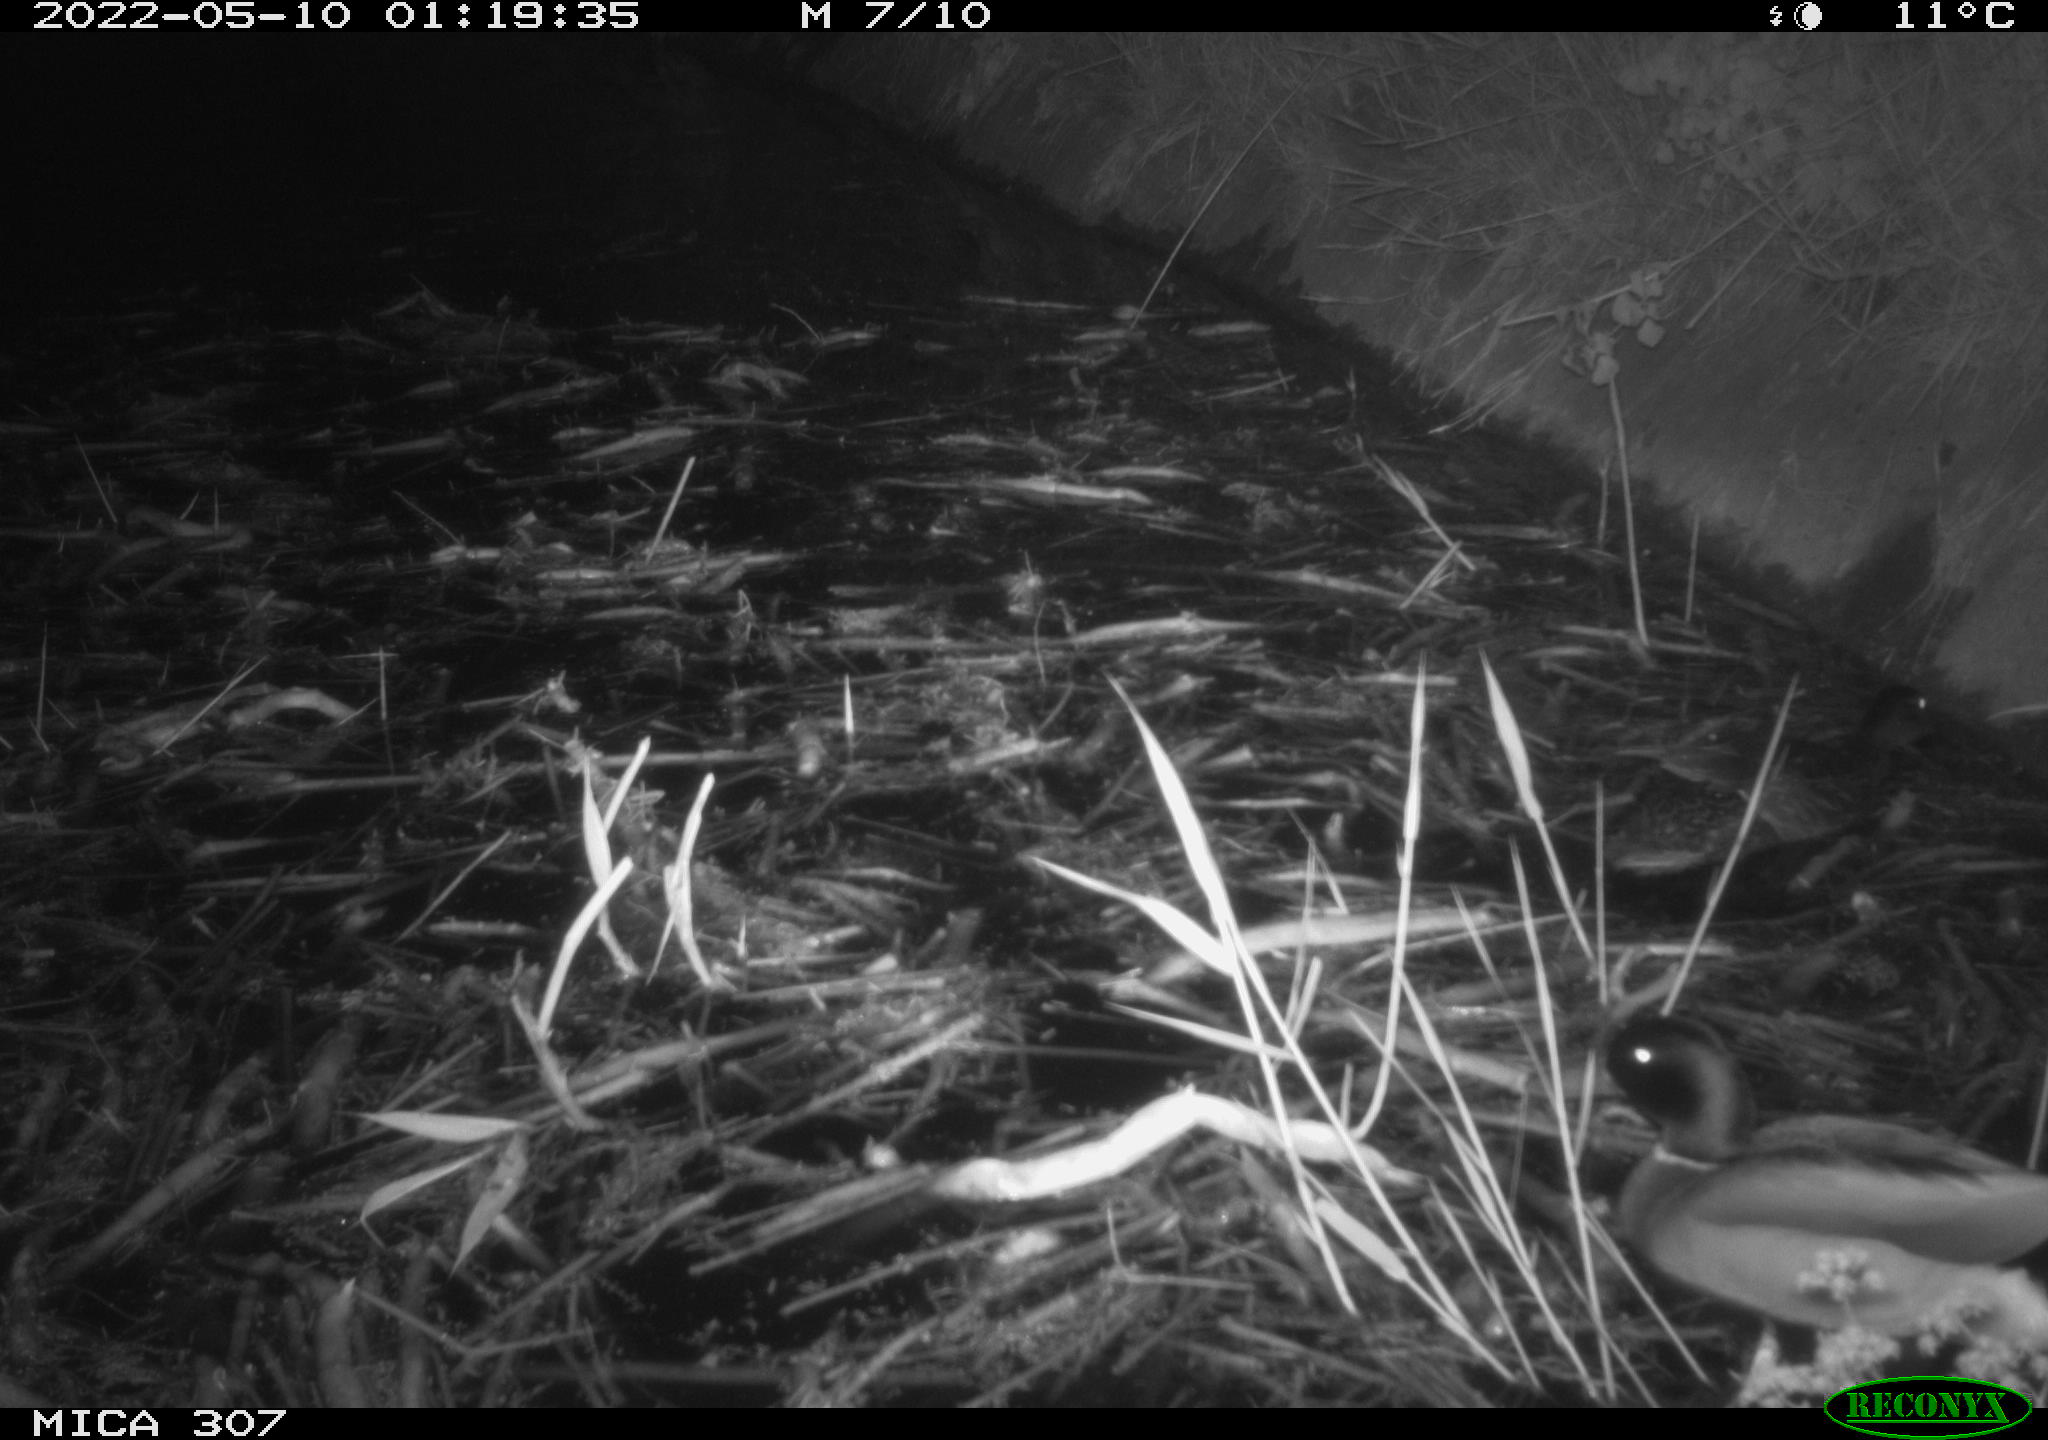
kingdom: Animalia
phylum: Chordata
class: Aves
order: Anseriformes
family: Anatidae
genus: Anas
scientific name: Anas platyrhynchos
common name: Mallard
